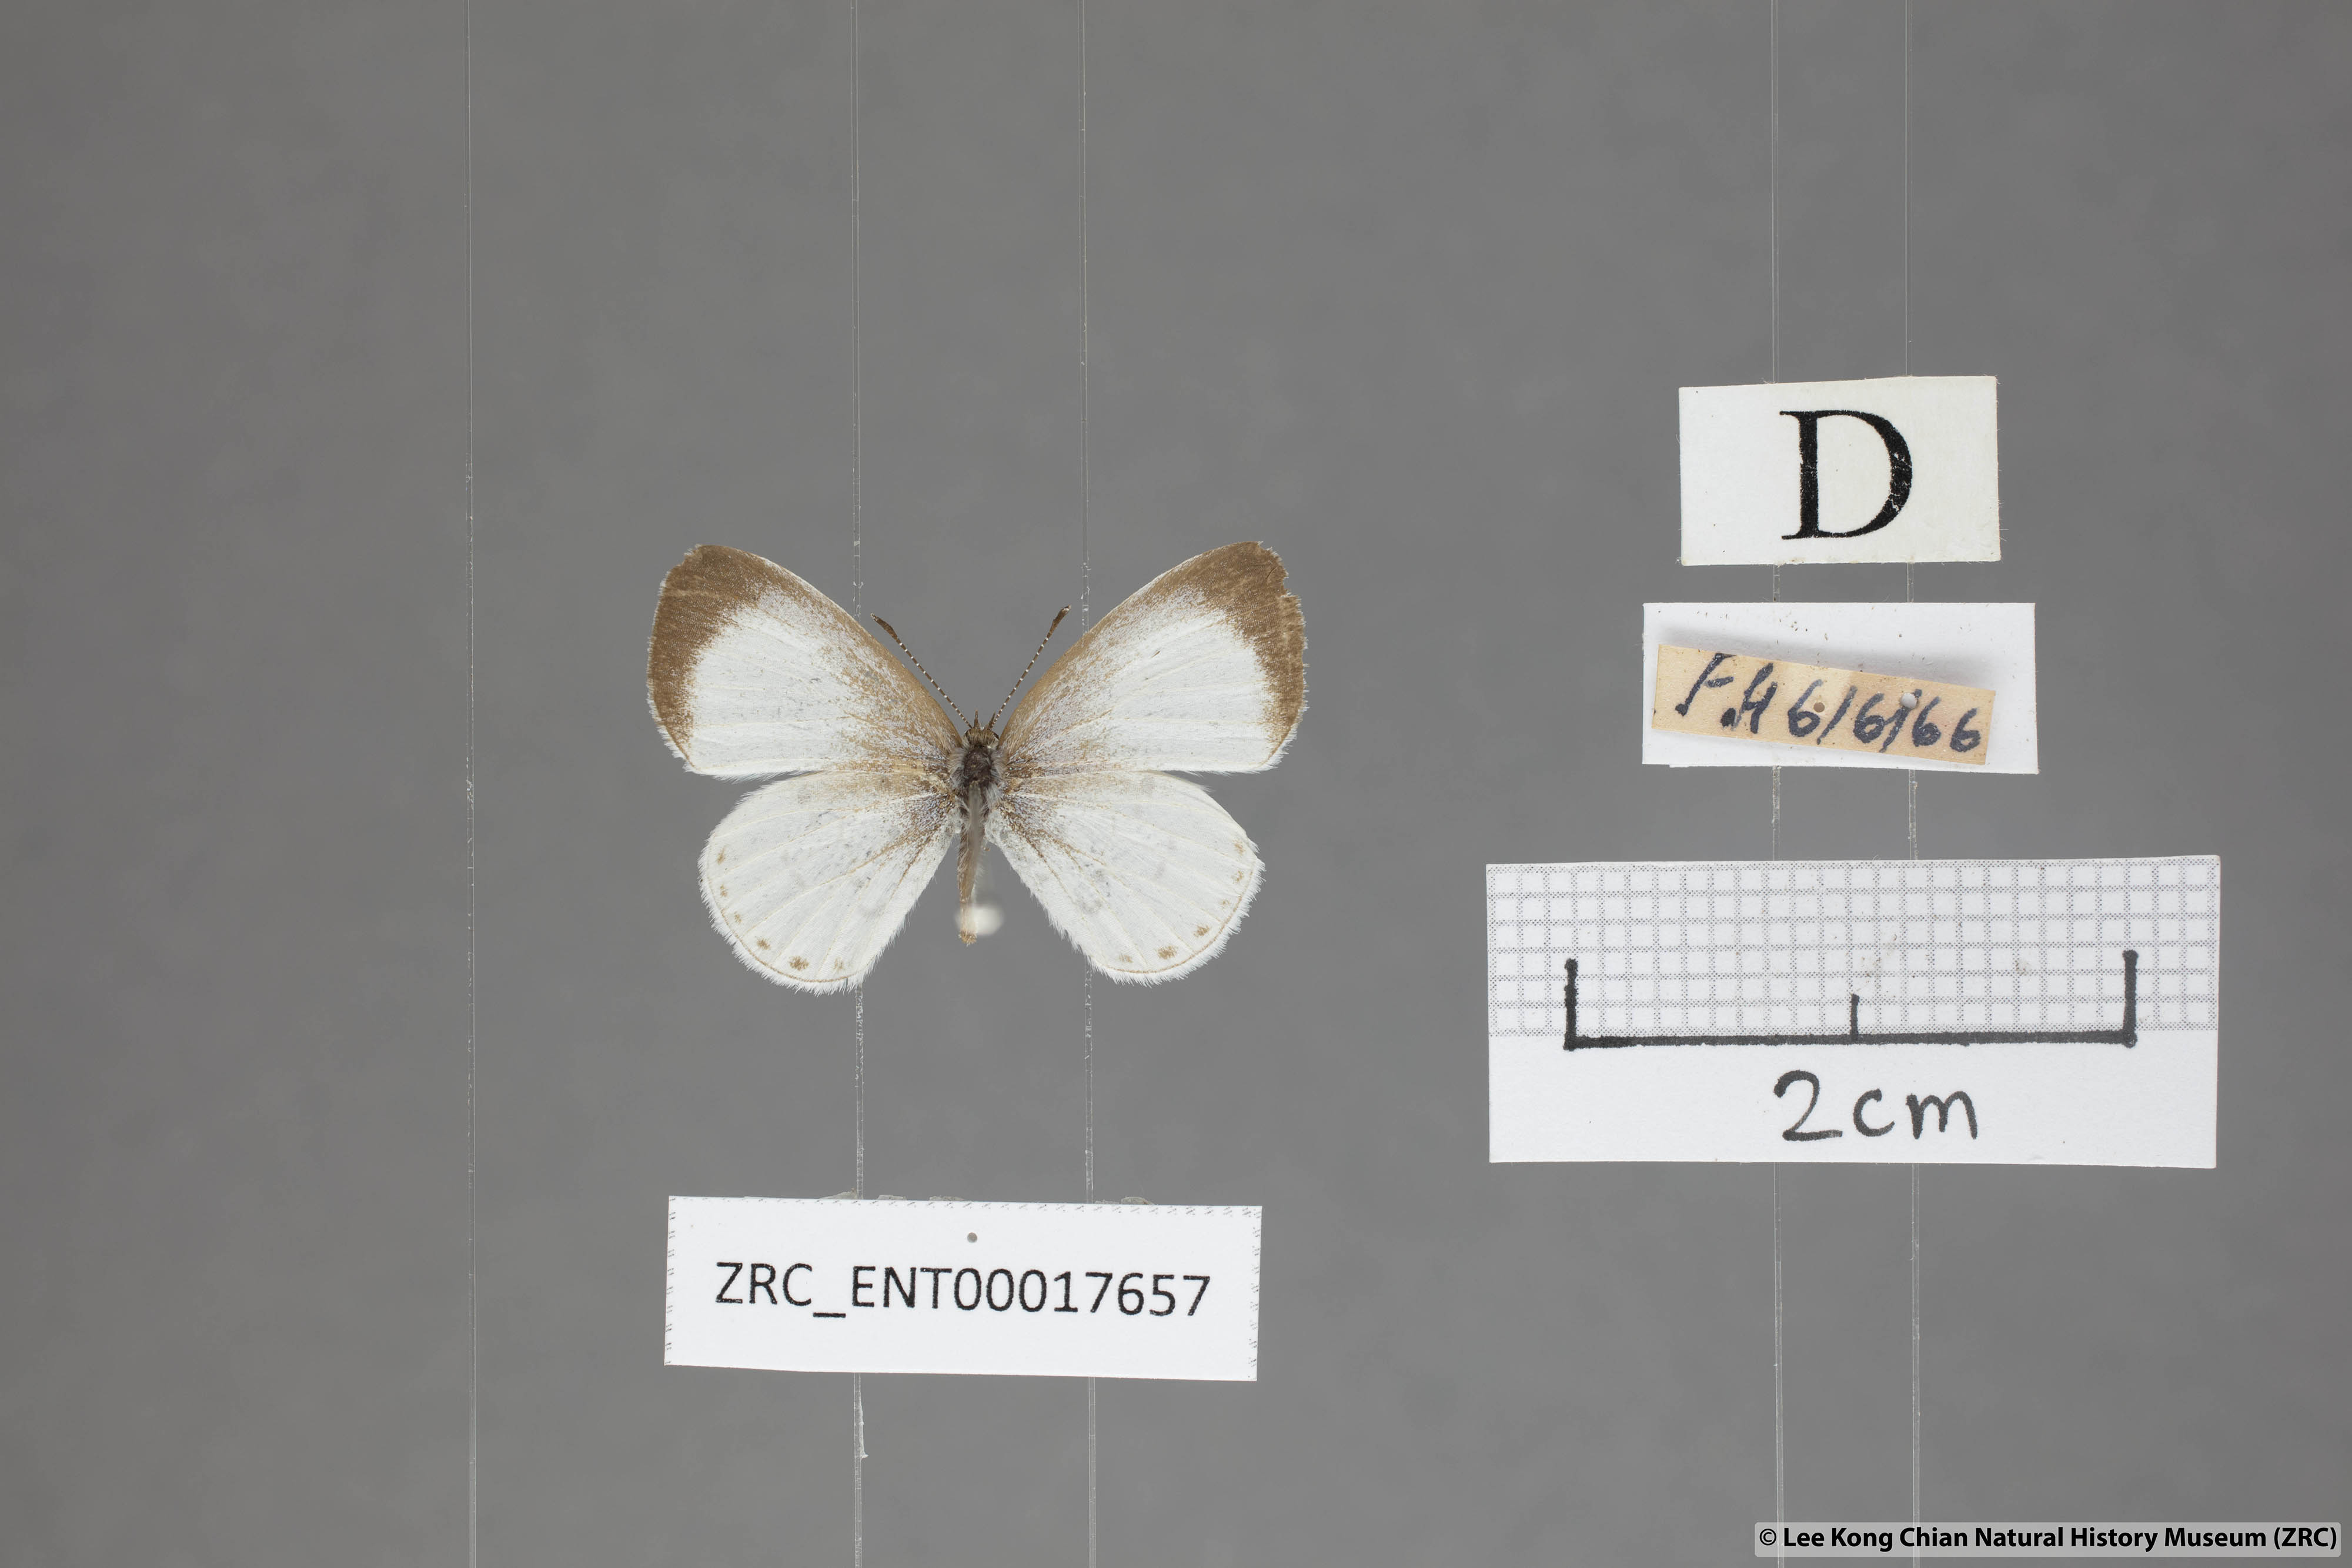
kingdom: Animalia
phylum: Arthropoda
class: Insecta
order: Lepidoptera
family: Lycaenidae
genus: Udara
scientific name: Udara akasa
